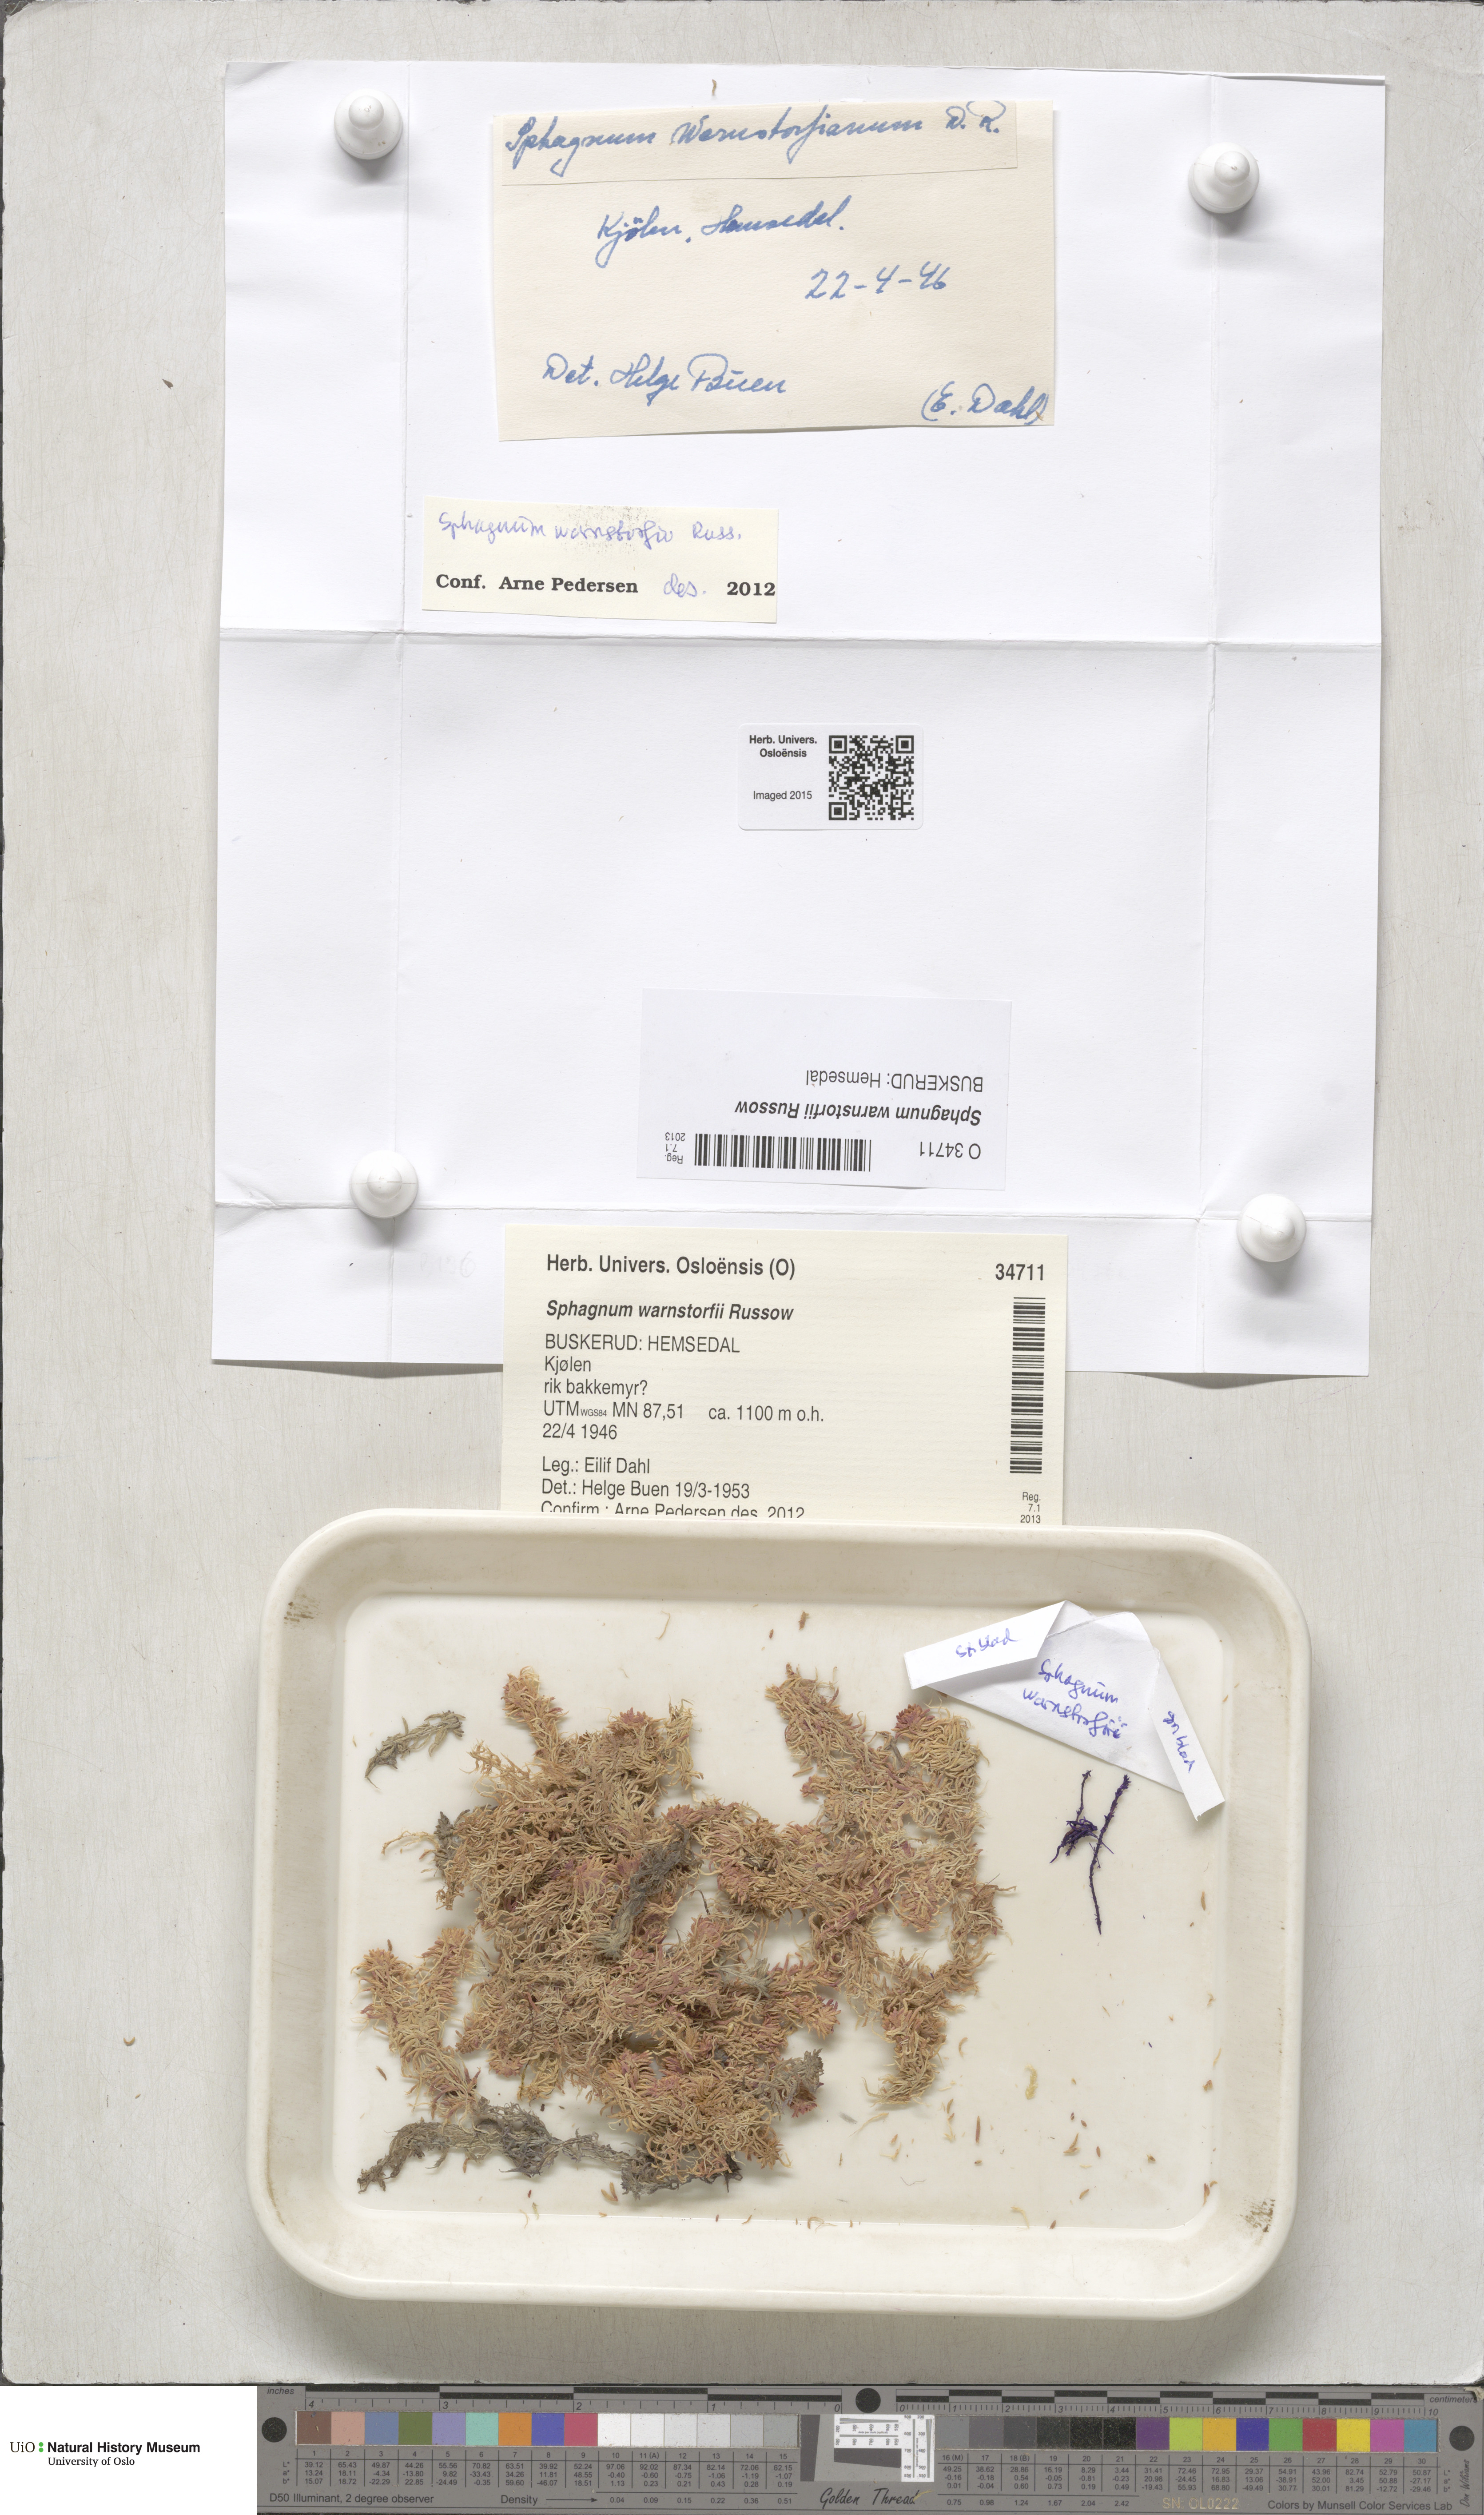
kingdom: Plantae
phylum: Bryophyta
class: Sphagnopsida
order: Sphagnales
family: Sphagnaceae
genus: Sphagnum
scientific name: Sphagnum warnstorfii
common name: Warnstorf's peat moss
